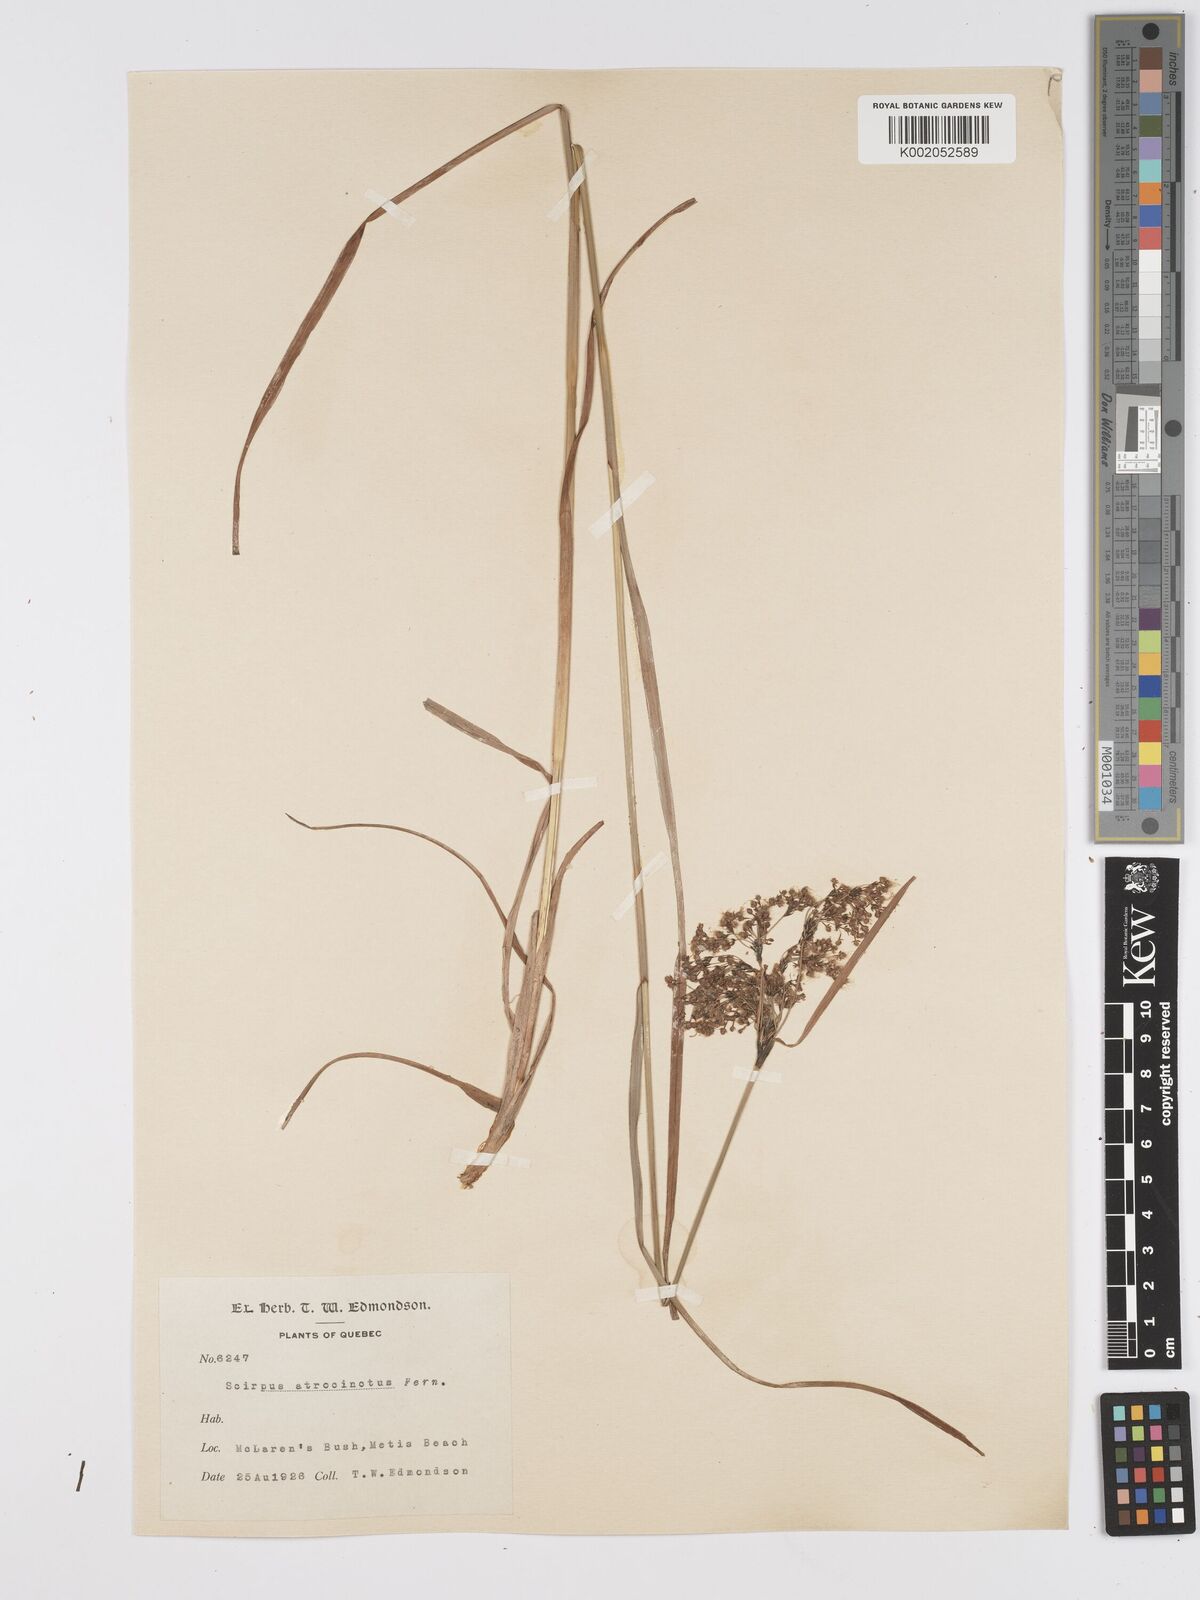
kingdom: Plantae
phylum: Tracheophyta
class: Liliopsida
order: Poales
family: Cyperaceae
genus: Scirpus
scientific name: Scirpus atrocinctus
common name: Black-girdled bulrush
